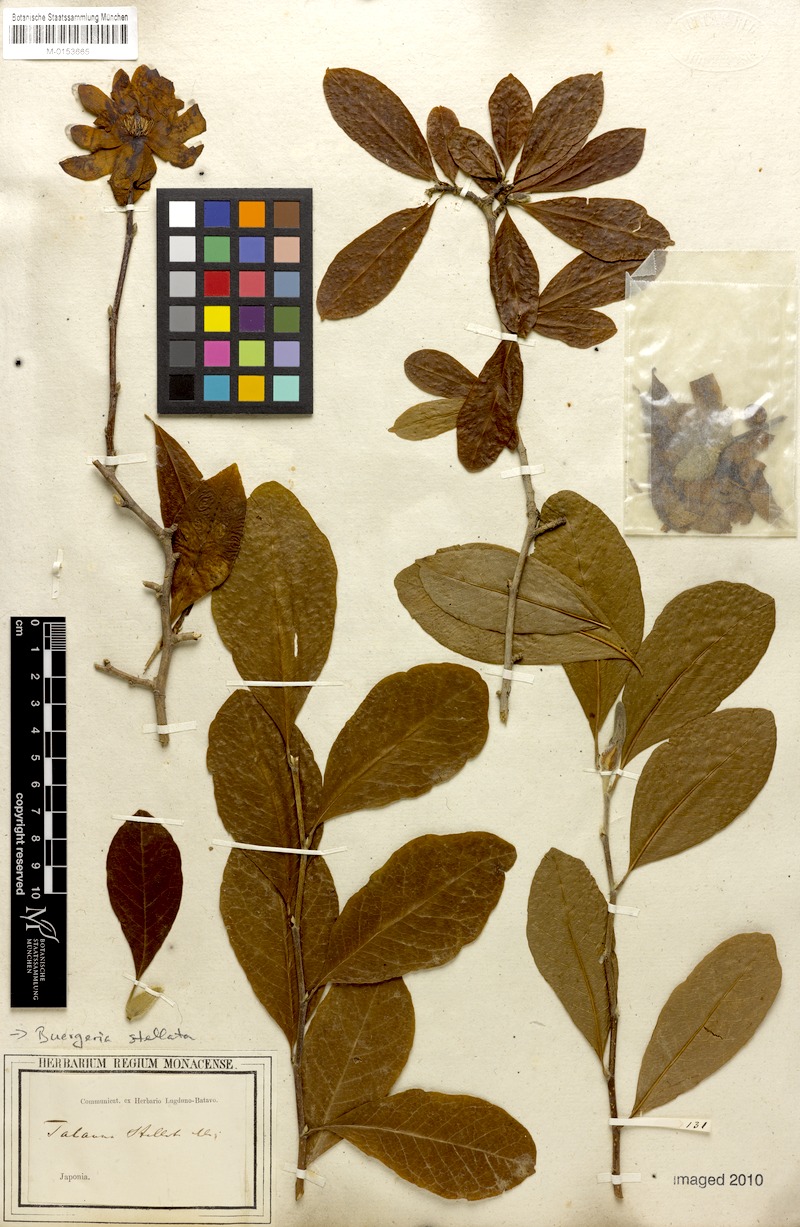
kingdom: Plantae
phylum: Tracheophyta
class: Magnoliopsida
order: Magnoliales
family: Magnoliaceae
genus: Magnolia
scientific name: Magnolia stellata
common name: Star magnolia
